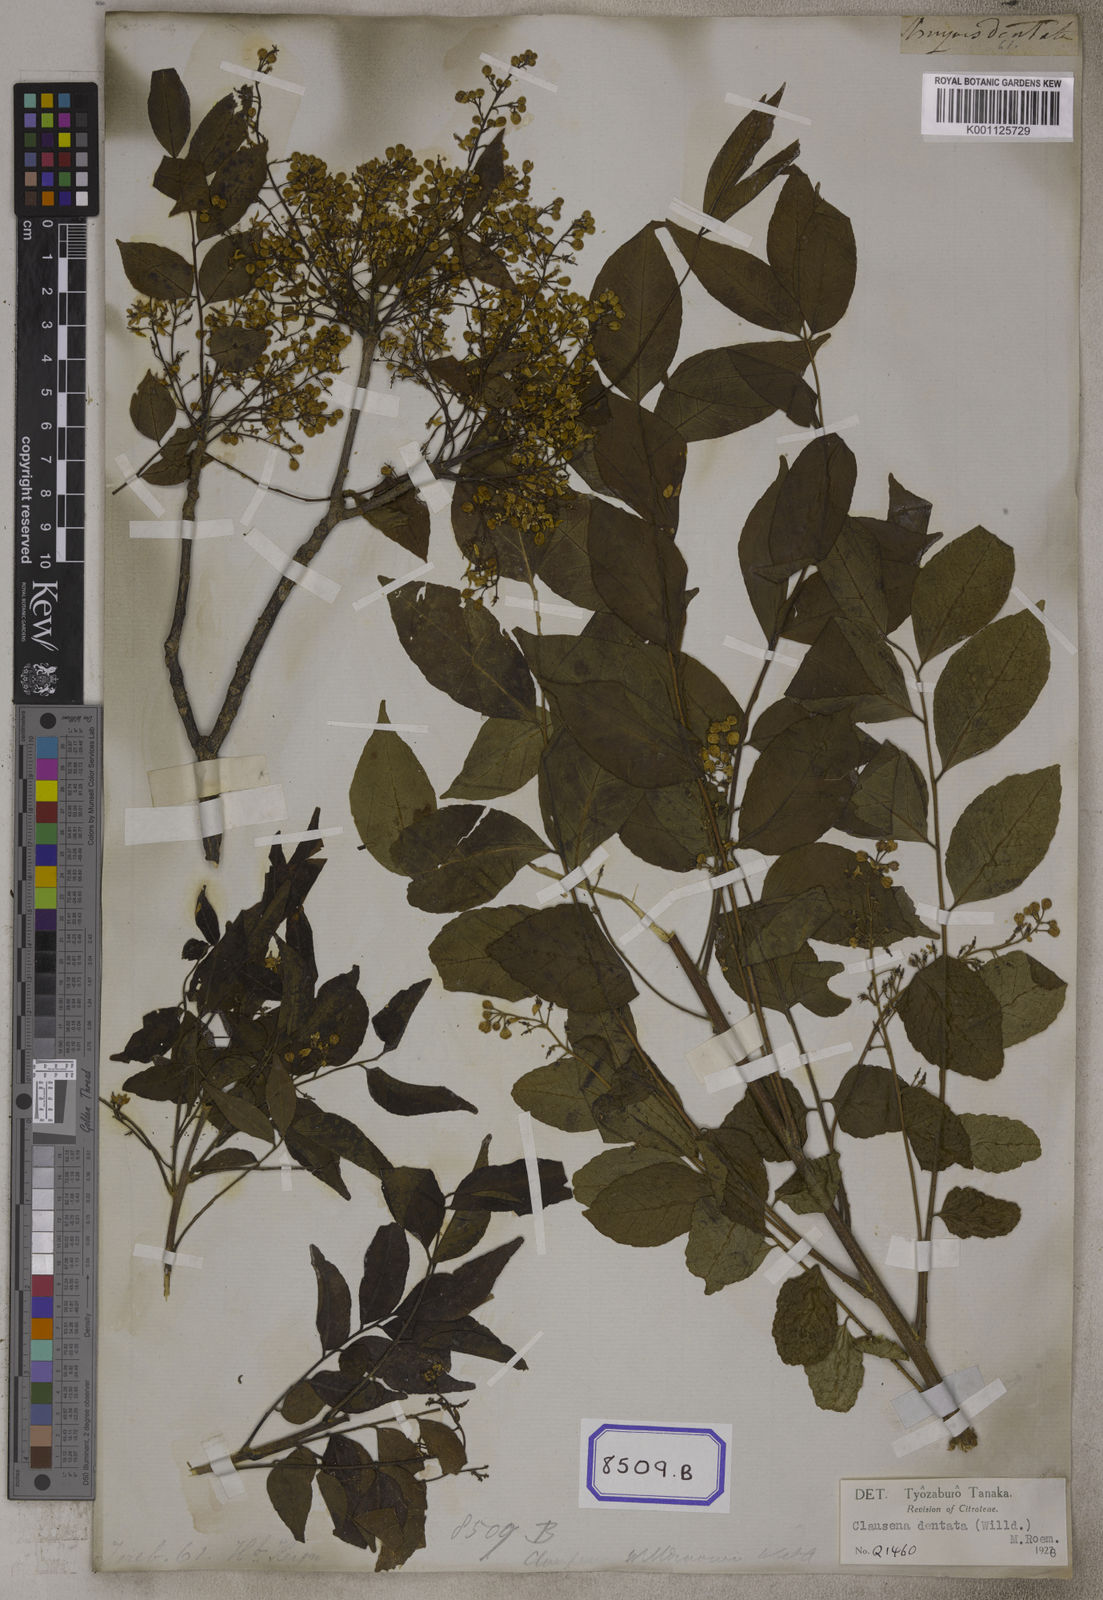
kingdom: Plantae
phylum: Tracheophyta
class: Magnoliopsida
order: Sapindales
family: Rutaceae
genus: Clausena
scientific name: Clausena anisata
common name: Horsewood
